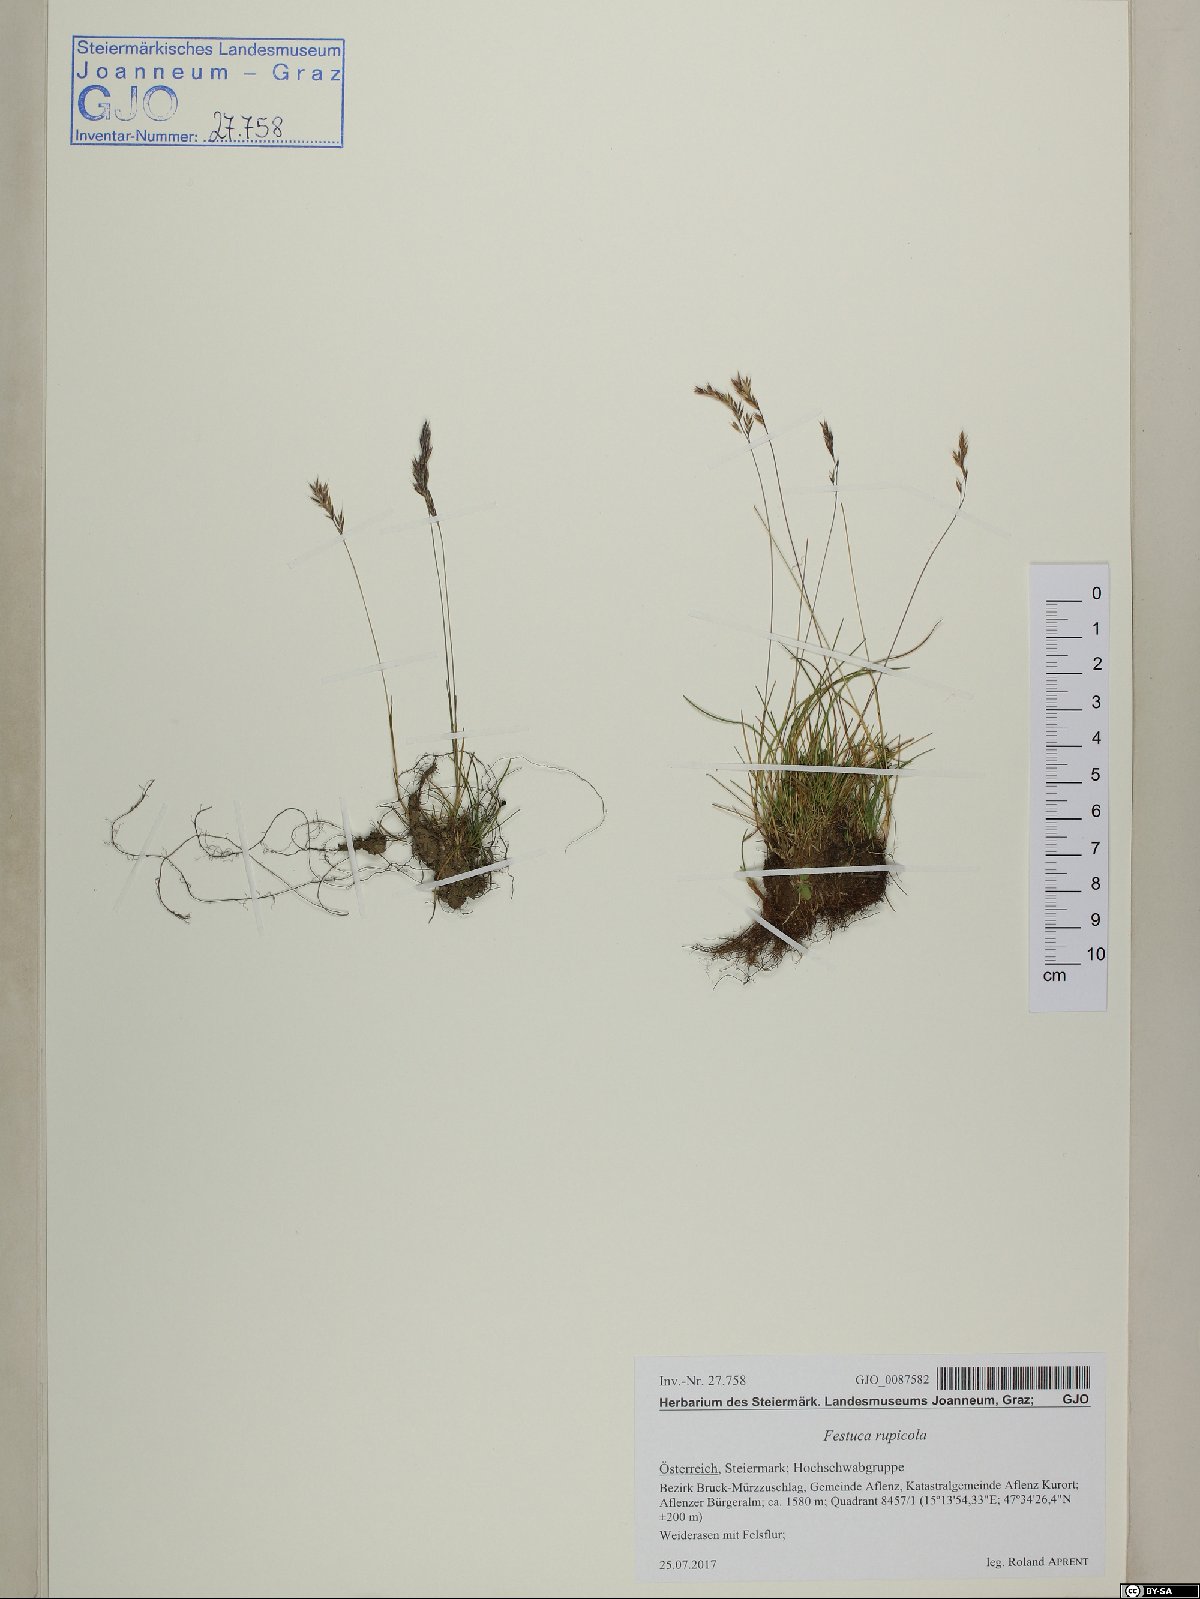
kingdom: Plantae
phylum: Tracheophyta
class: Liliopsida
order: Poales
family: Poaceae
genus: Festuca
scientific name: Festuca rupicaprina
